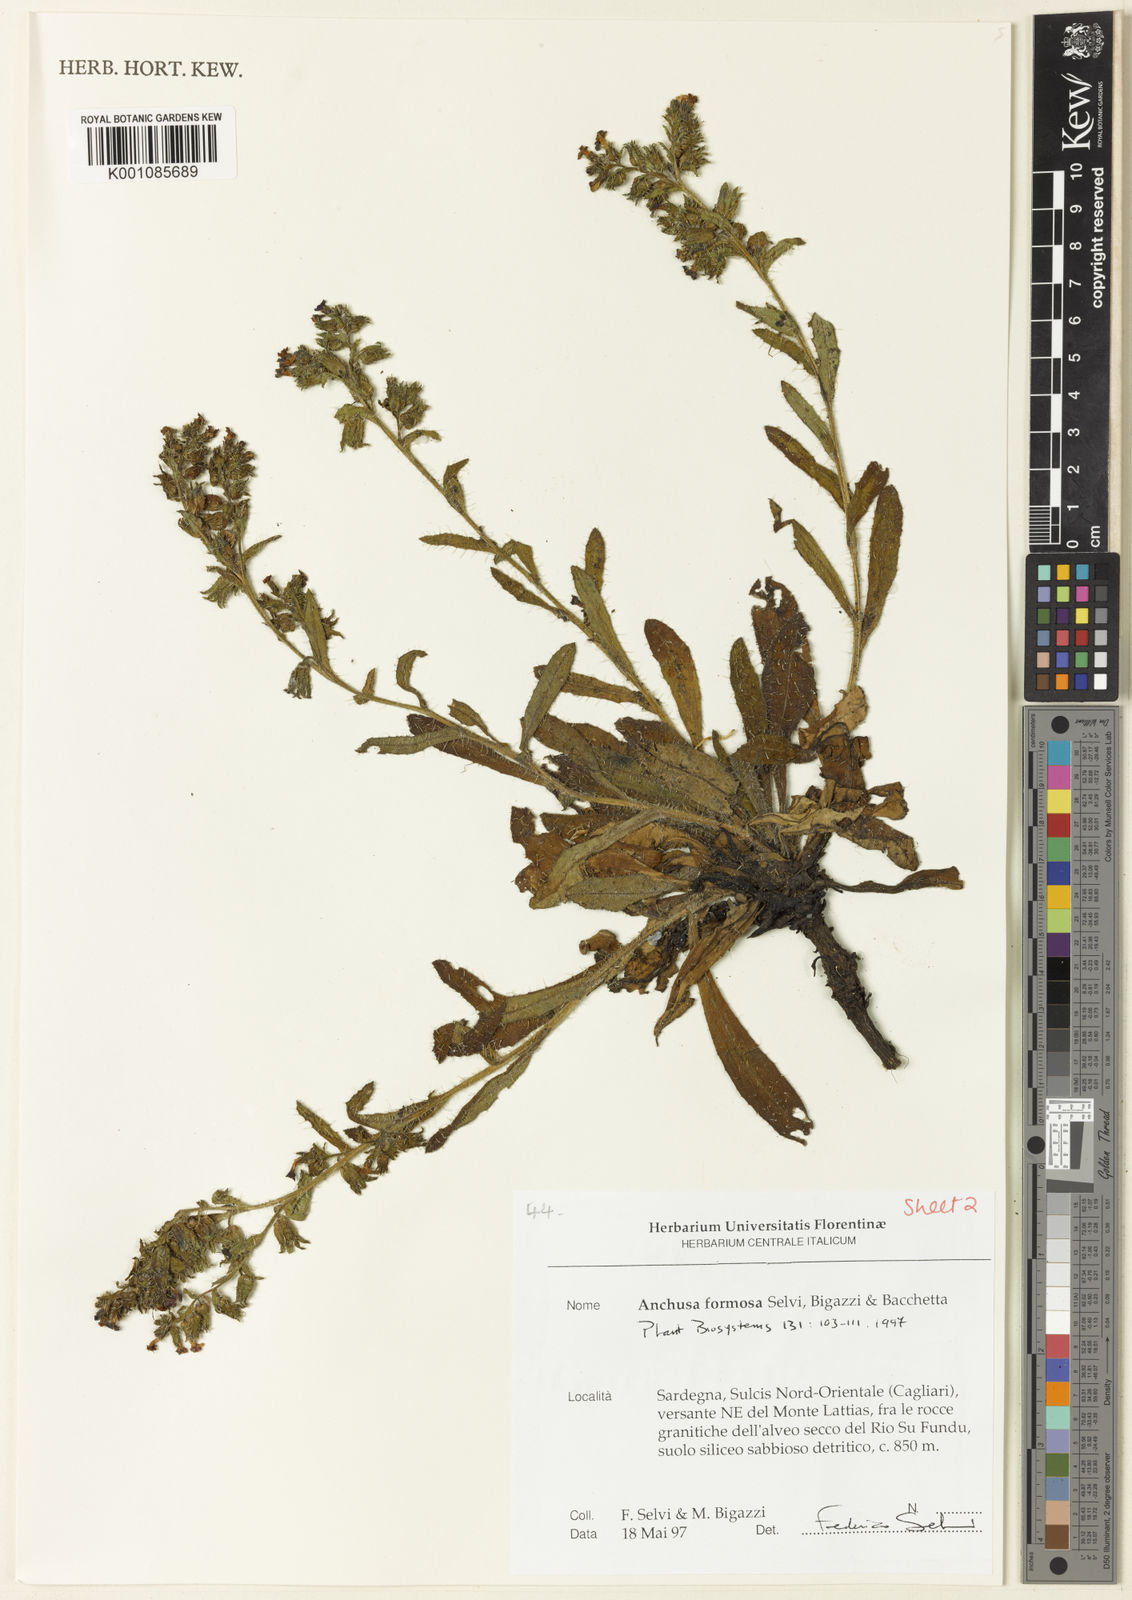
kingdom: Plantae
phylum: Tracheophyta
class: Magnoliopsida
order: Boraginales
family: Boraginaceae
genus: Anchusa
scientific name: Anchusa formosa
